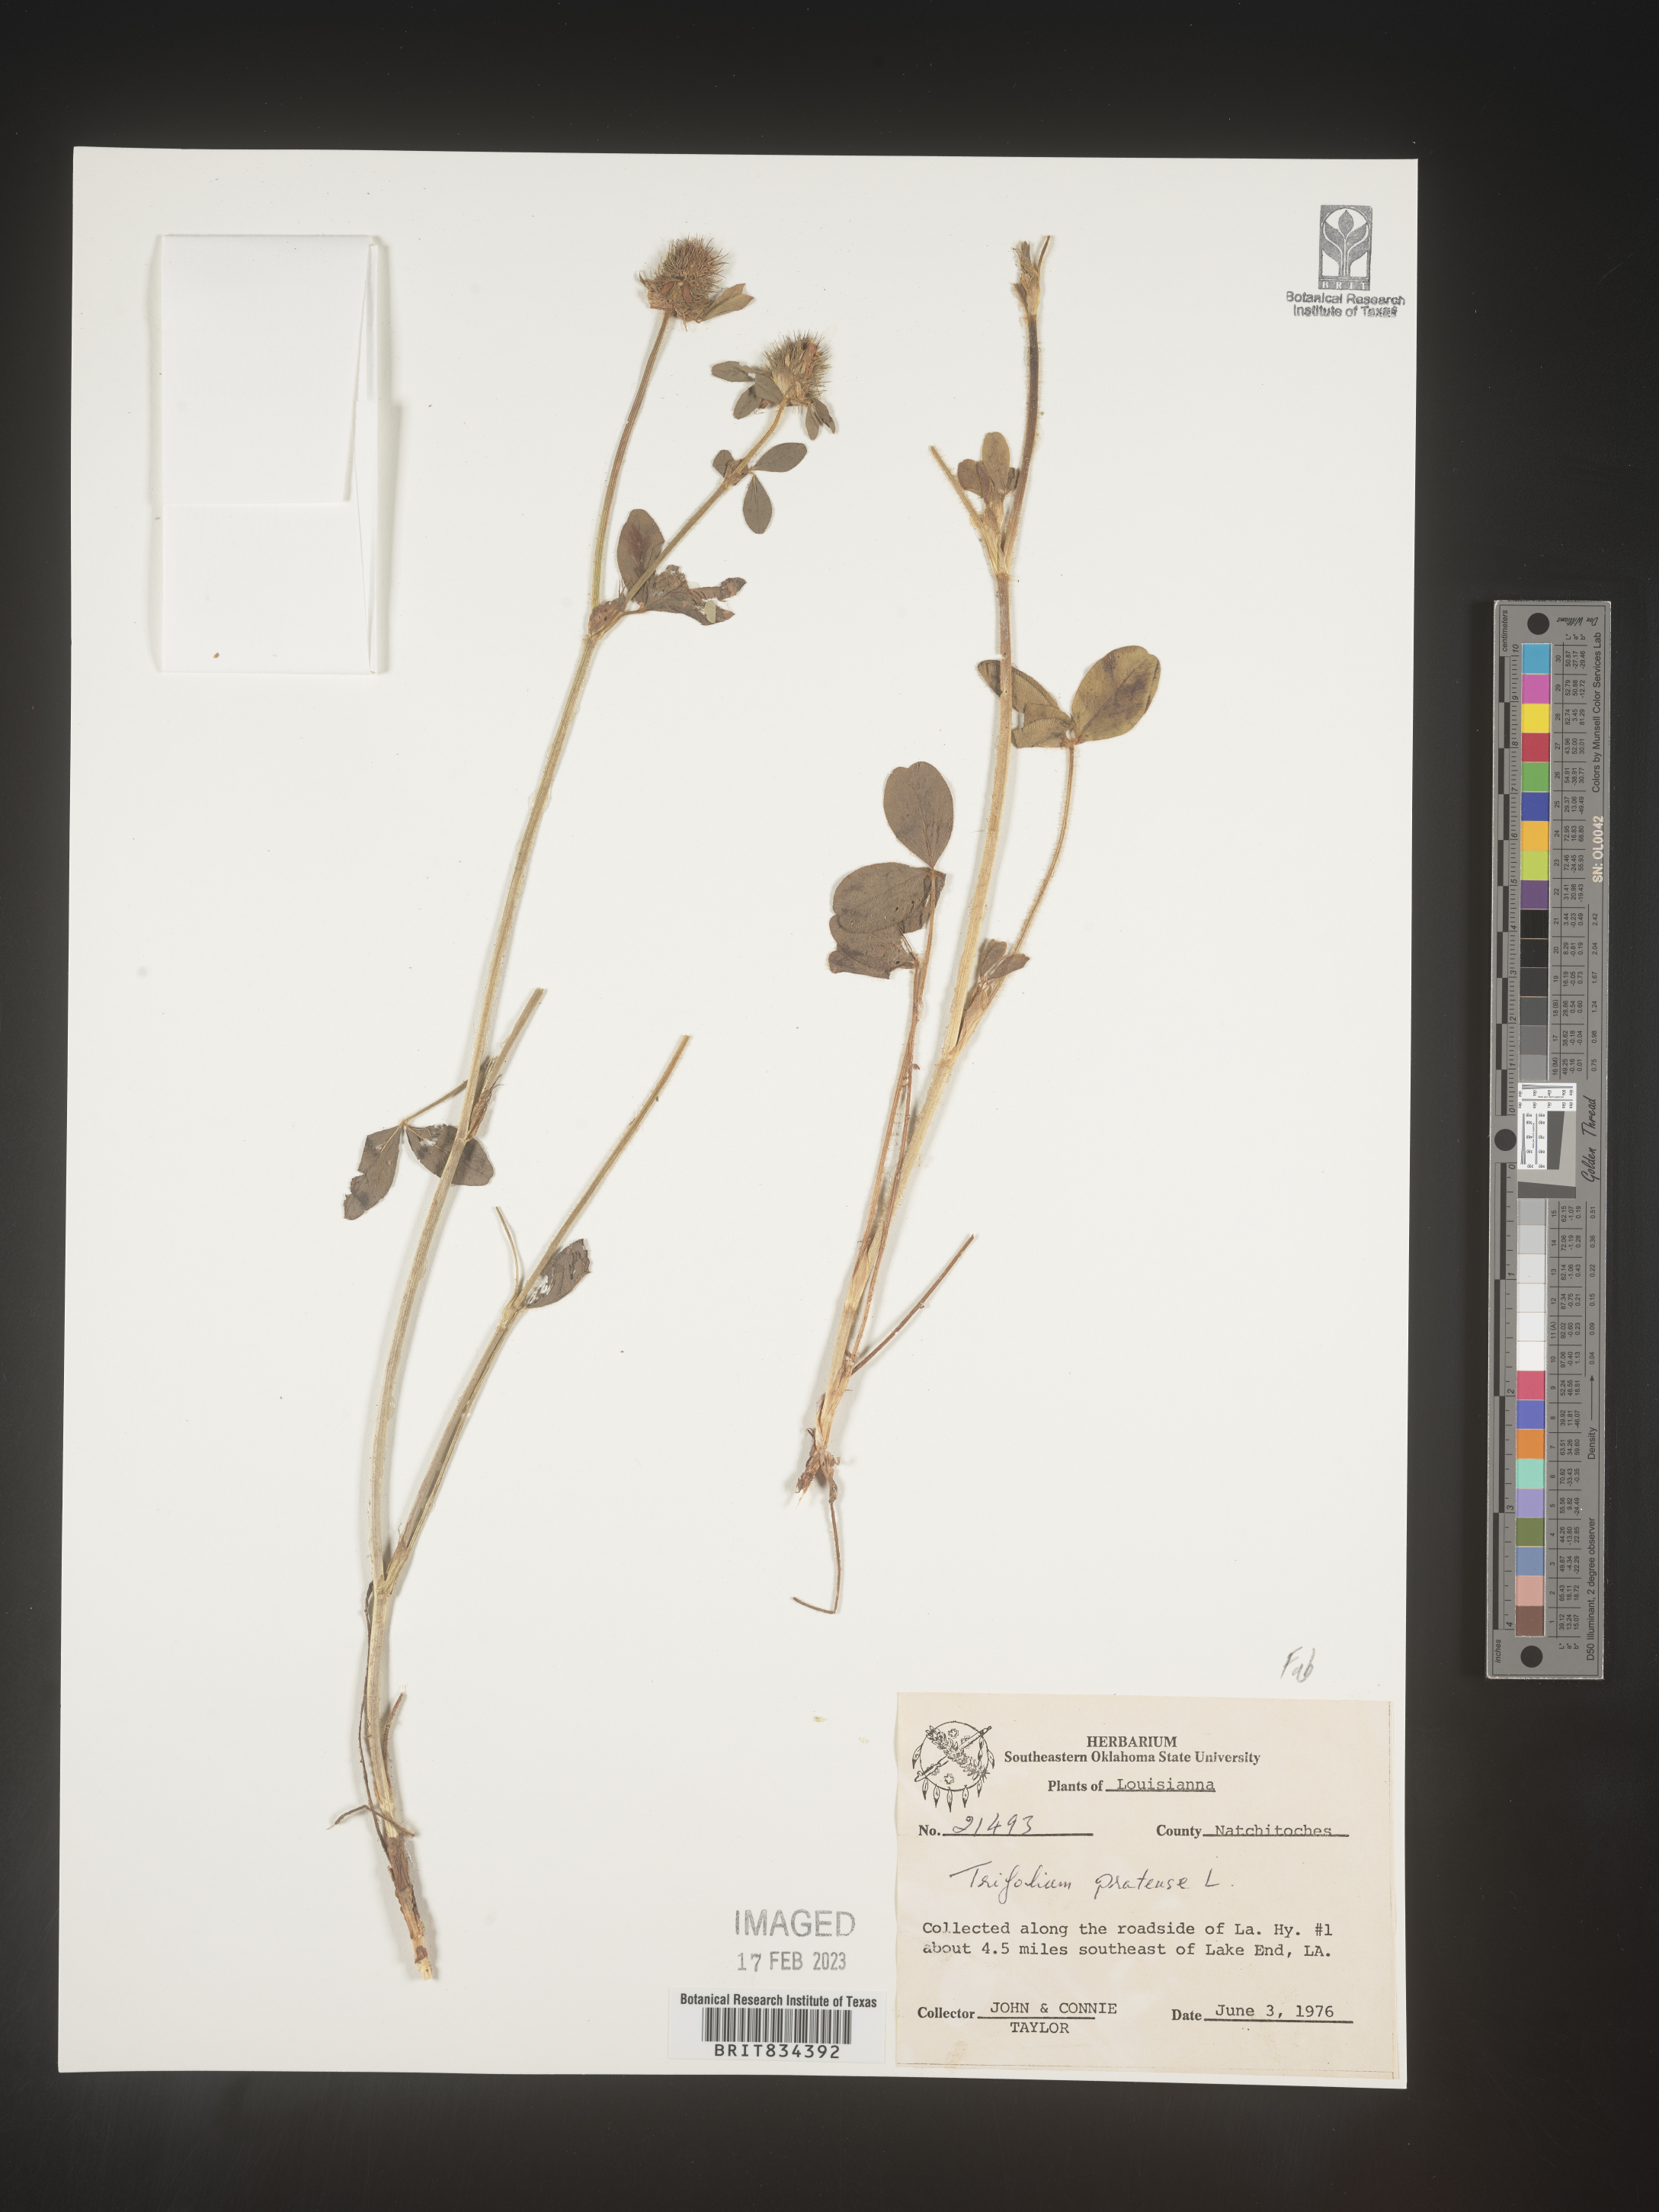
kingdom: Plantae
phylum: Tracheophyta
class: Magnoliopsida
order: Fabales
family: Fabaceae
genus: Trifolium
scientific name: Trifolium pratense
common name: Red clover
